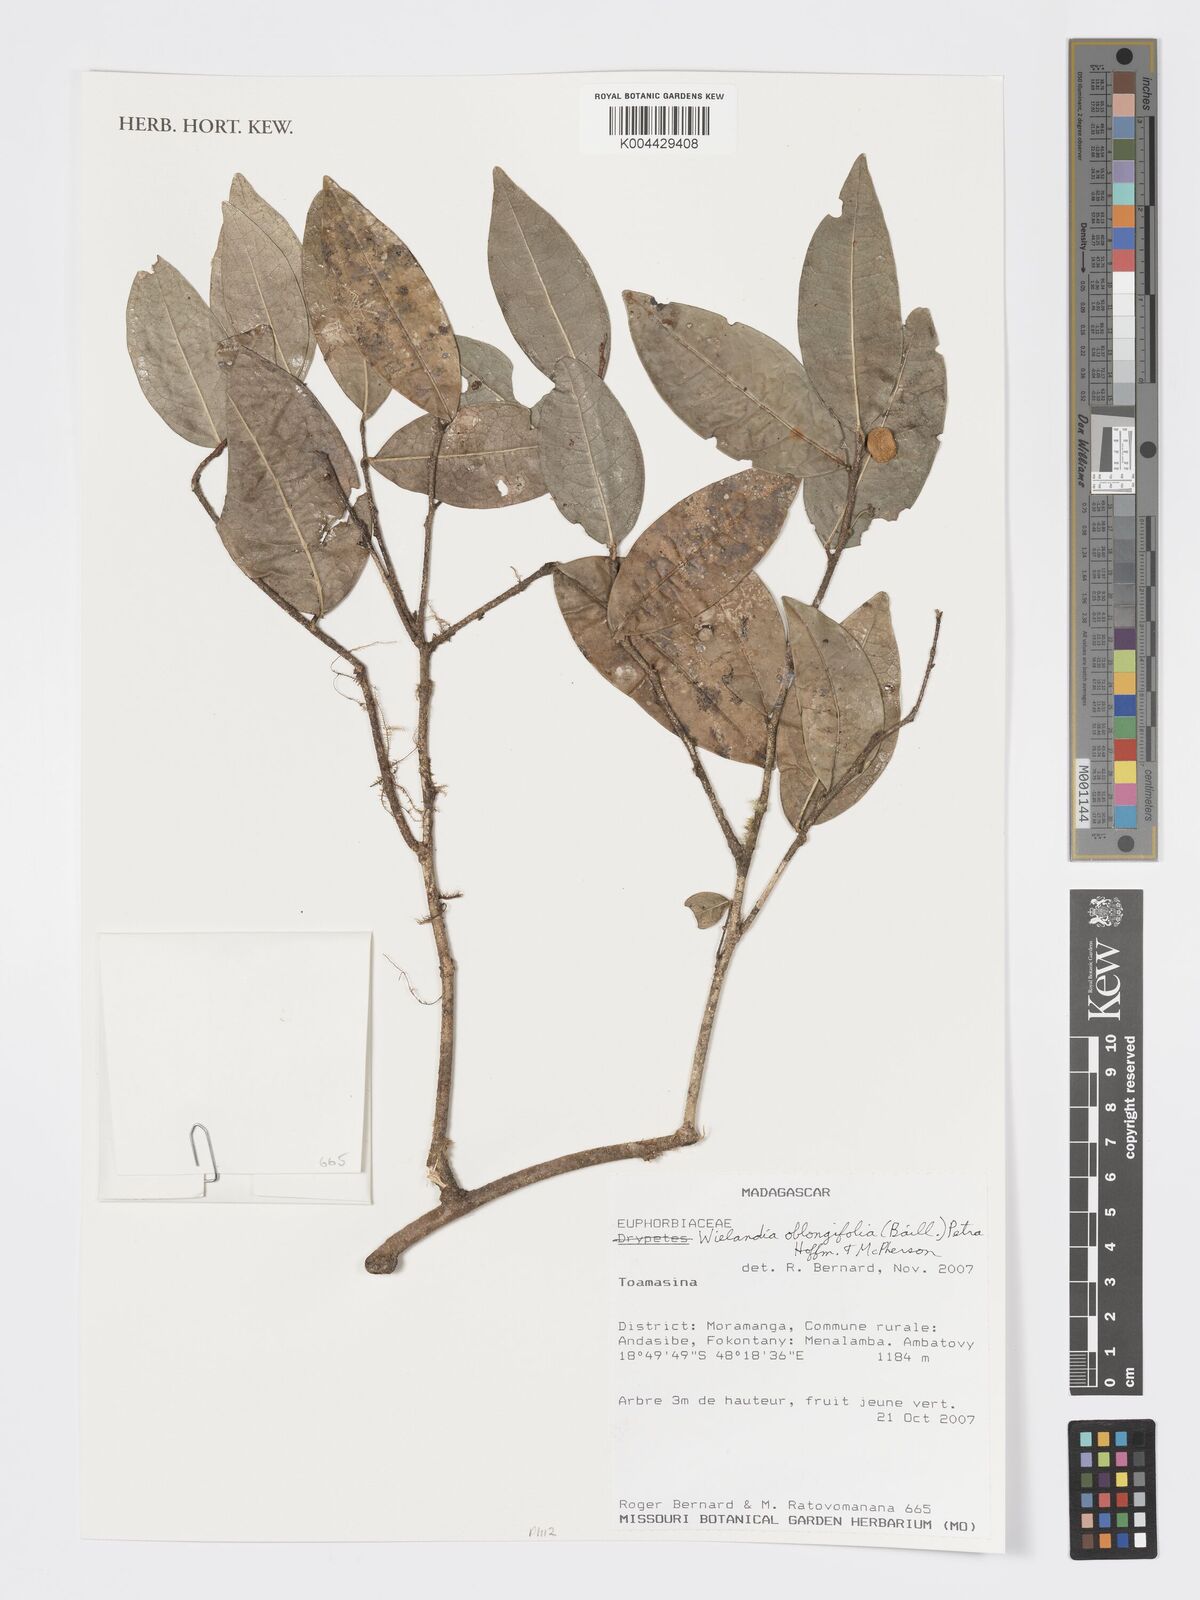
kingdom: Plantae
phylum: Tracheophyta
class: Magnoliopsida
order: Malpighiales
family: Phyllanthaceae
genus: Wielandia
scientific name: Wielandia oblongifolia
